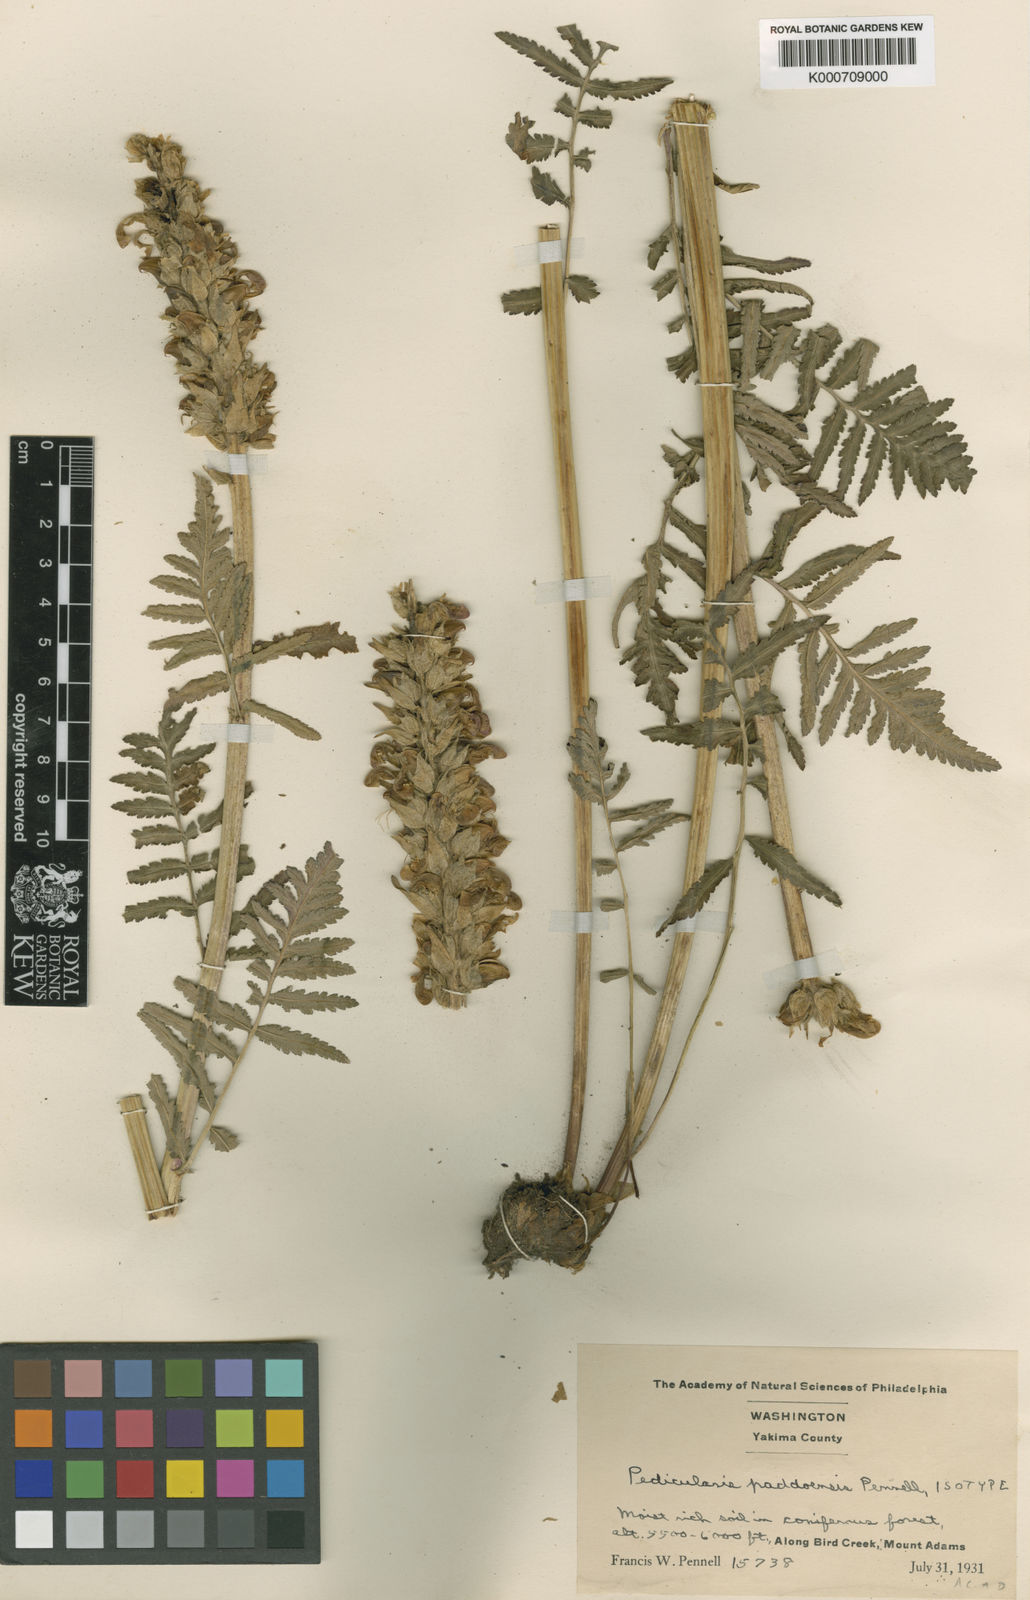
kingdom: Plantae
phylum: Tracheophyta
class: Magnoliopsida
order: Lamiales
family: Orobanchaceae
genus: Pedicularis
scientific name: Pedicularis bracteosa
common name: Bracted lousewort
